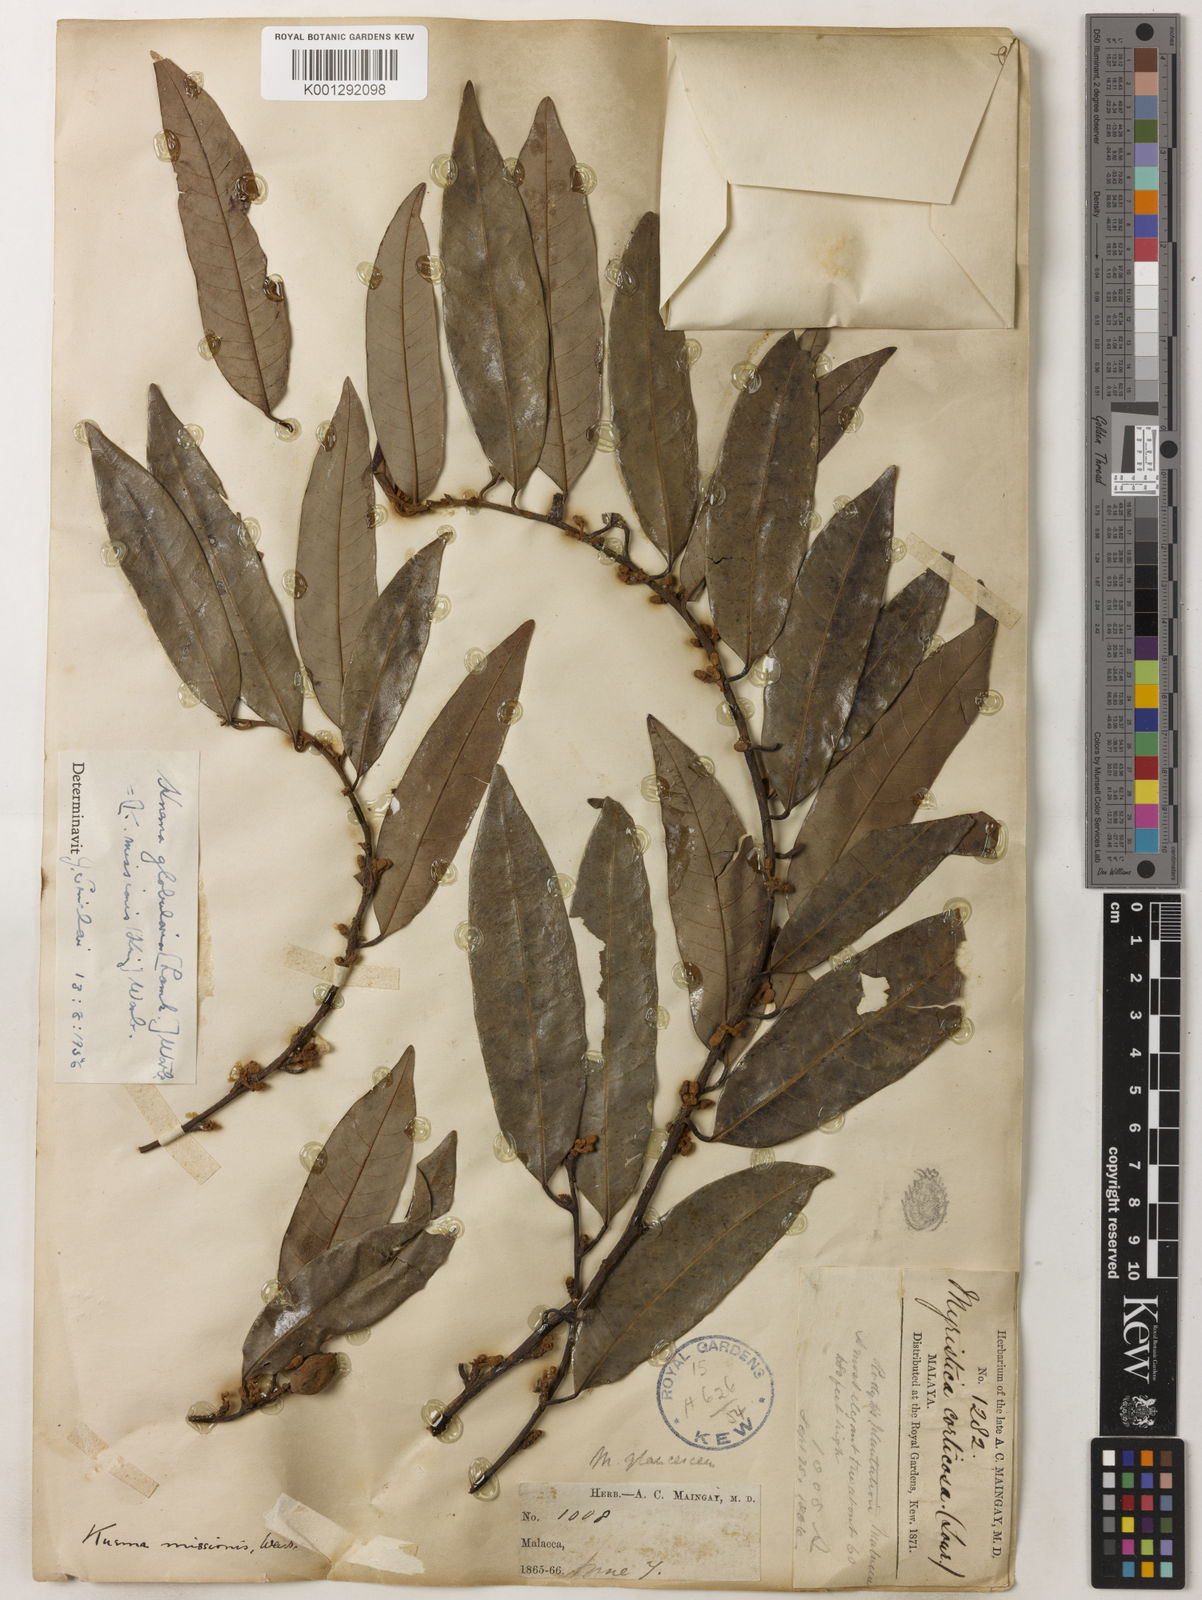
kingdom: Plantae
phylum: Tracheophyta
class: Magnoliopsida
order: Magnoliales
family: Myristicaceae
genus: Knema
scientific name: Knema globularia
